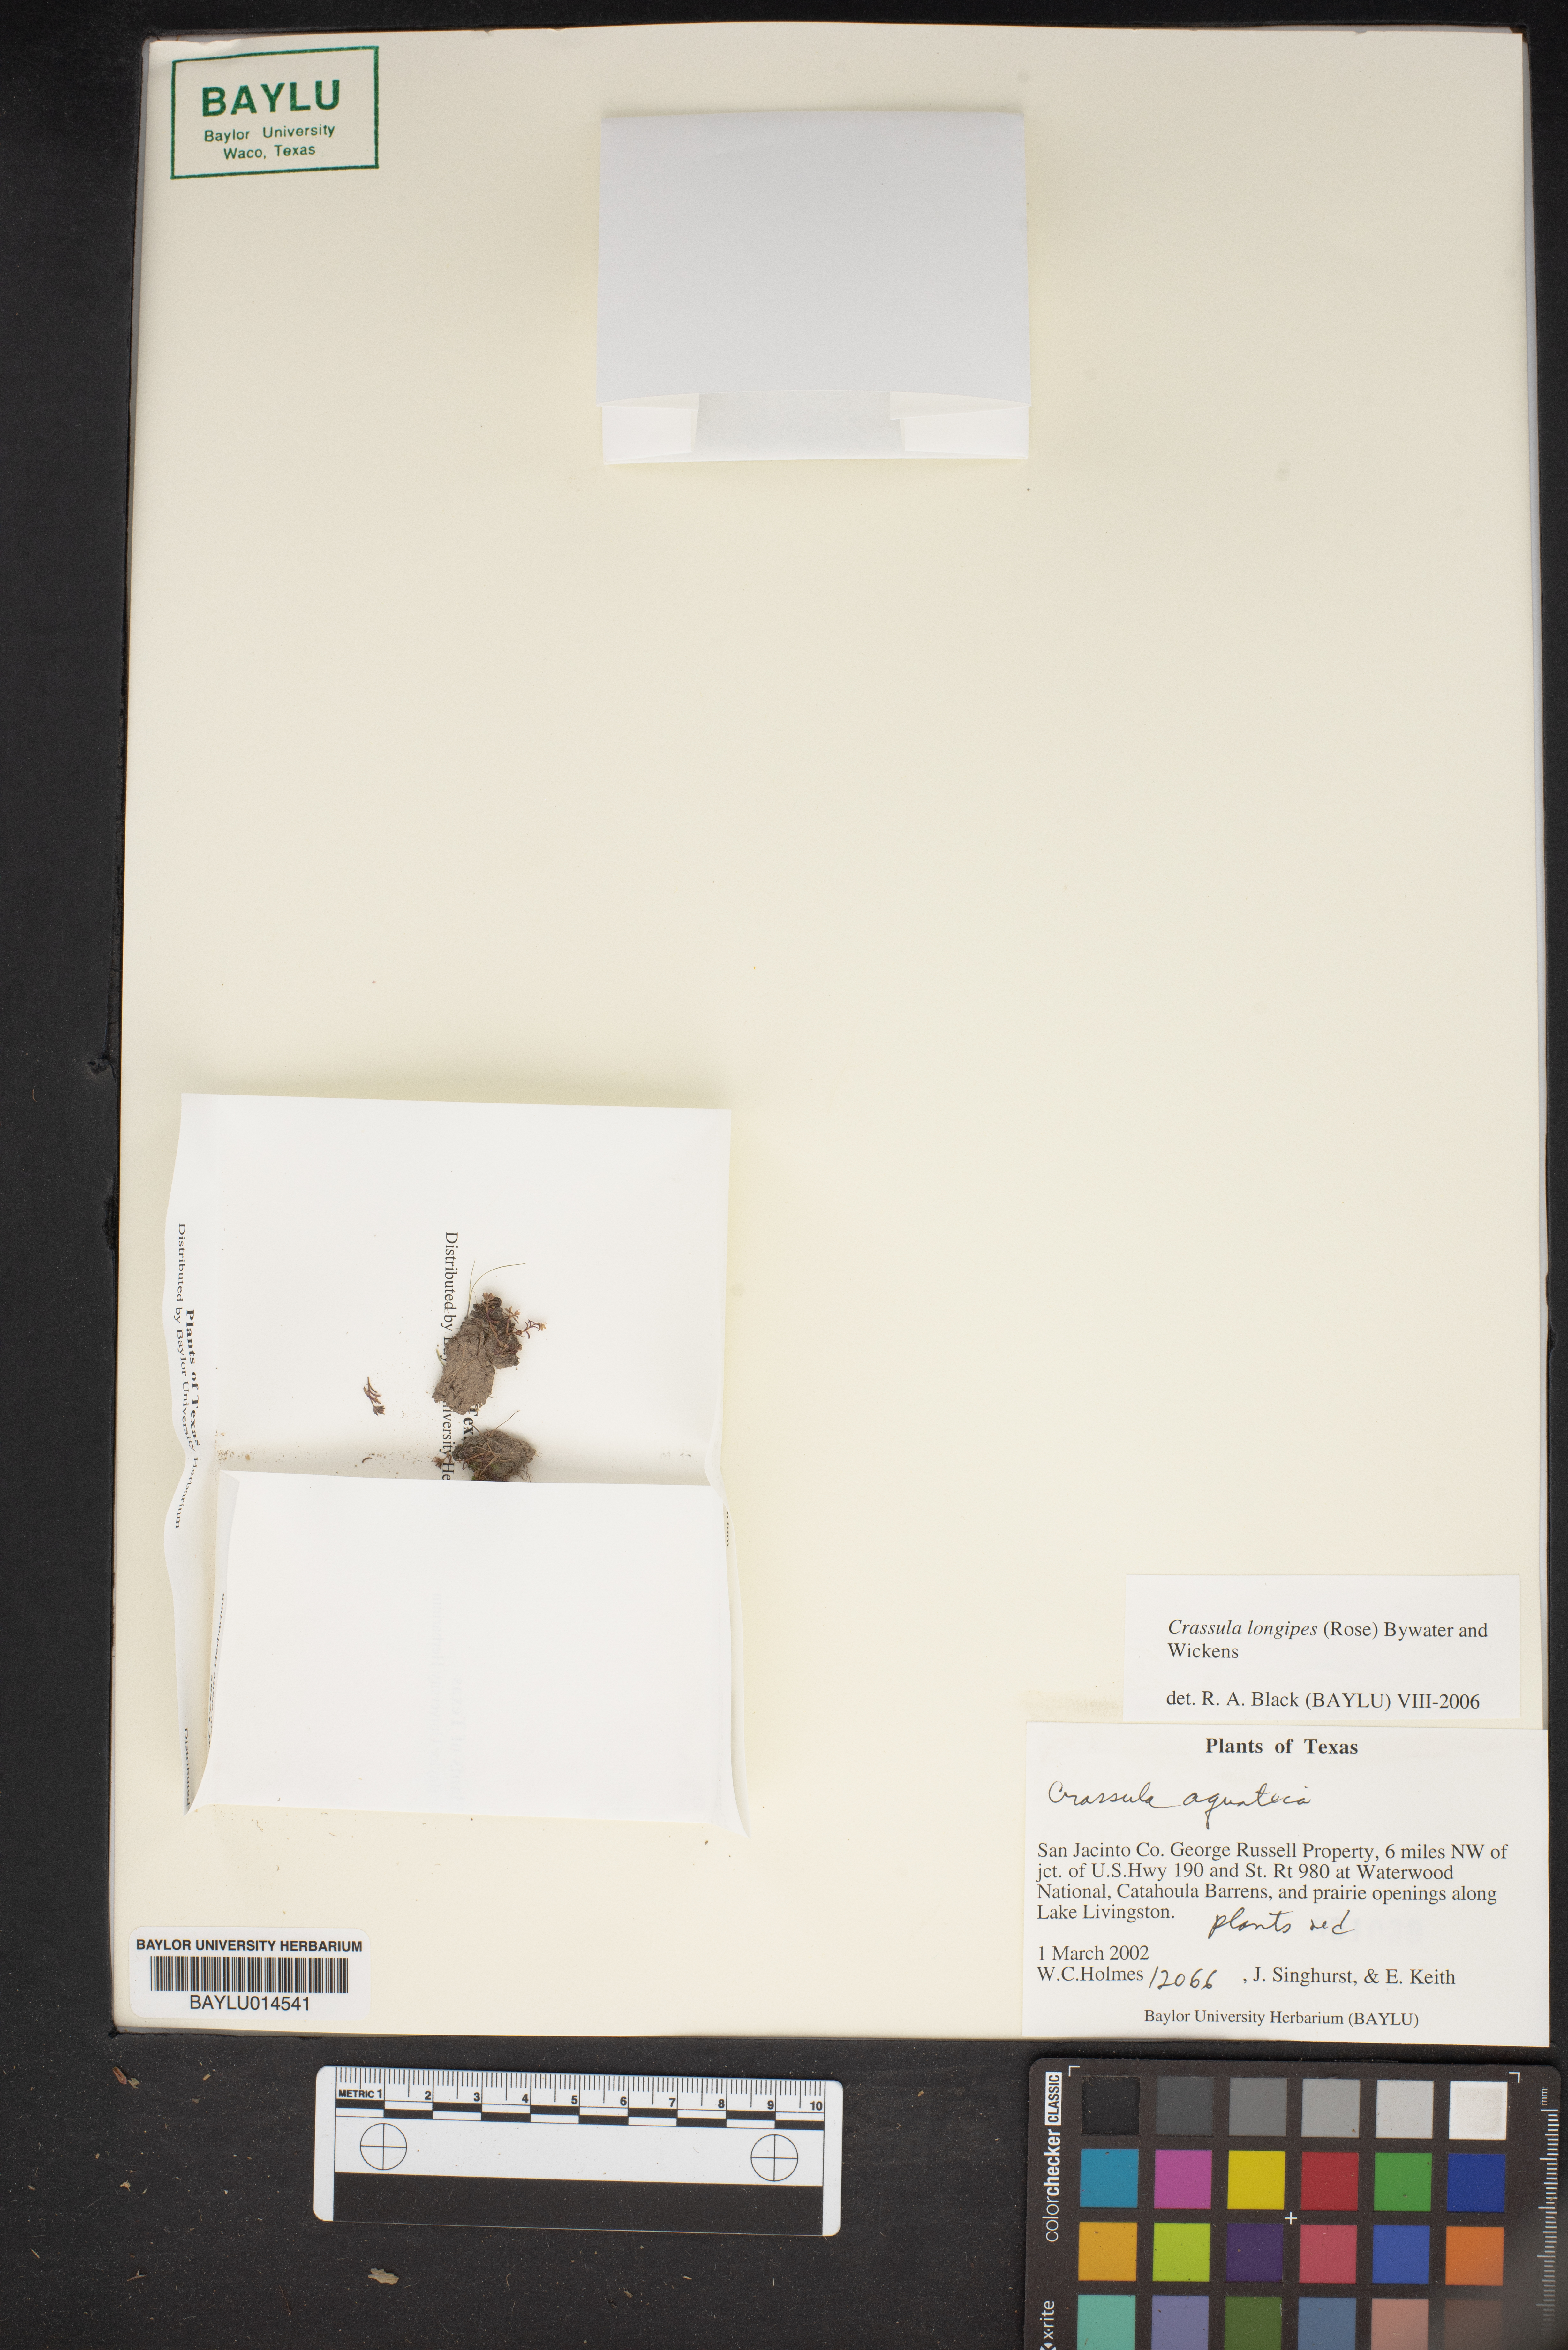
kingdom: Plantae
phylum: Tracheophyta
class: Magnoliopsida
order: Saxifragales
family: Crassulaceae
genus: Crassula
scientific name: Crassula longipes
